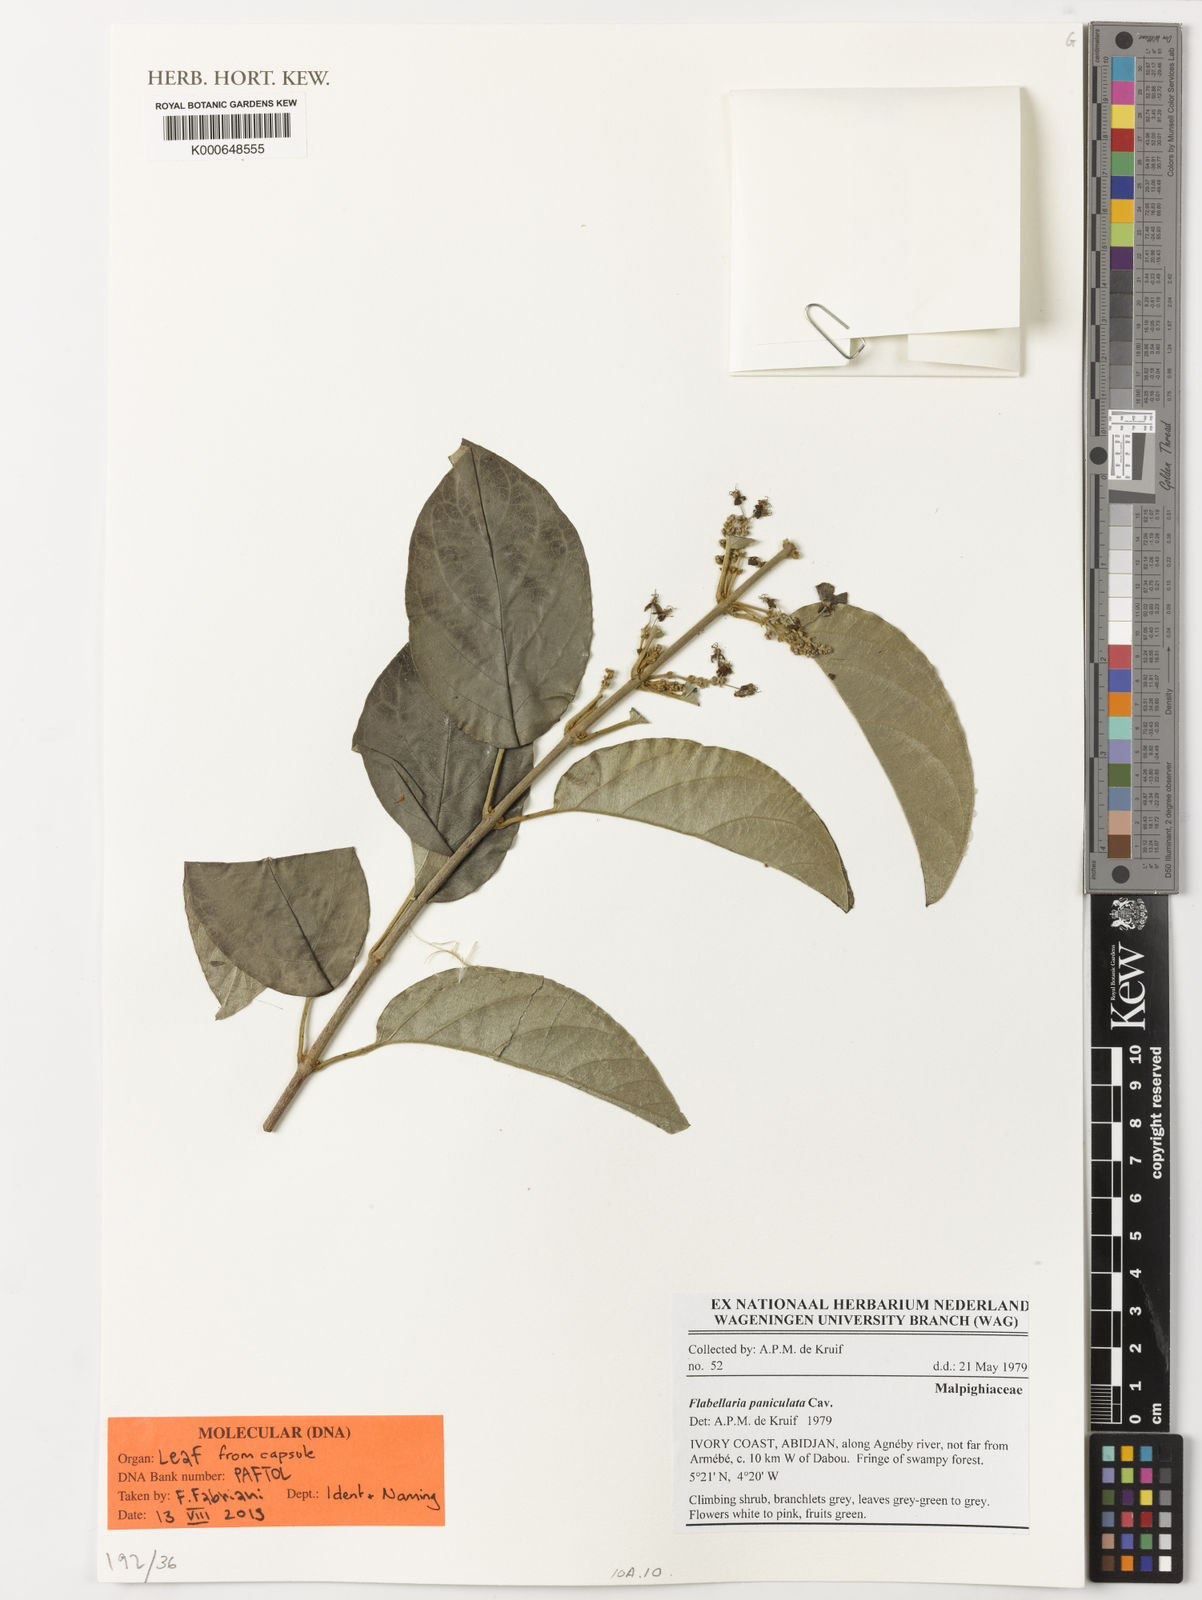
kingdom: Plantae
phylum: Tracheophyta
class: Magnoliopsida
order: Malpighiales
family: Malpighiaceae
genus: Flabellaria
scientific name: Flabellaria paniculata
